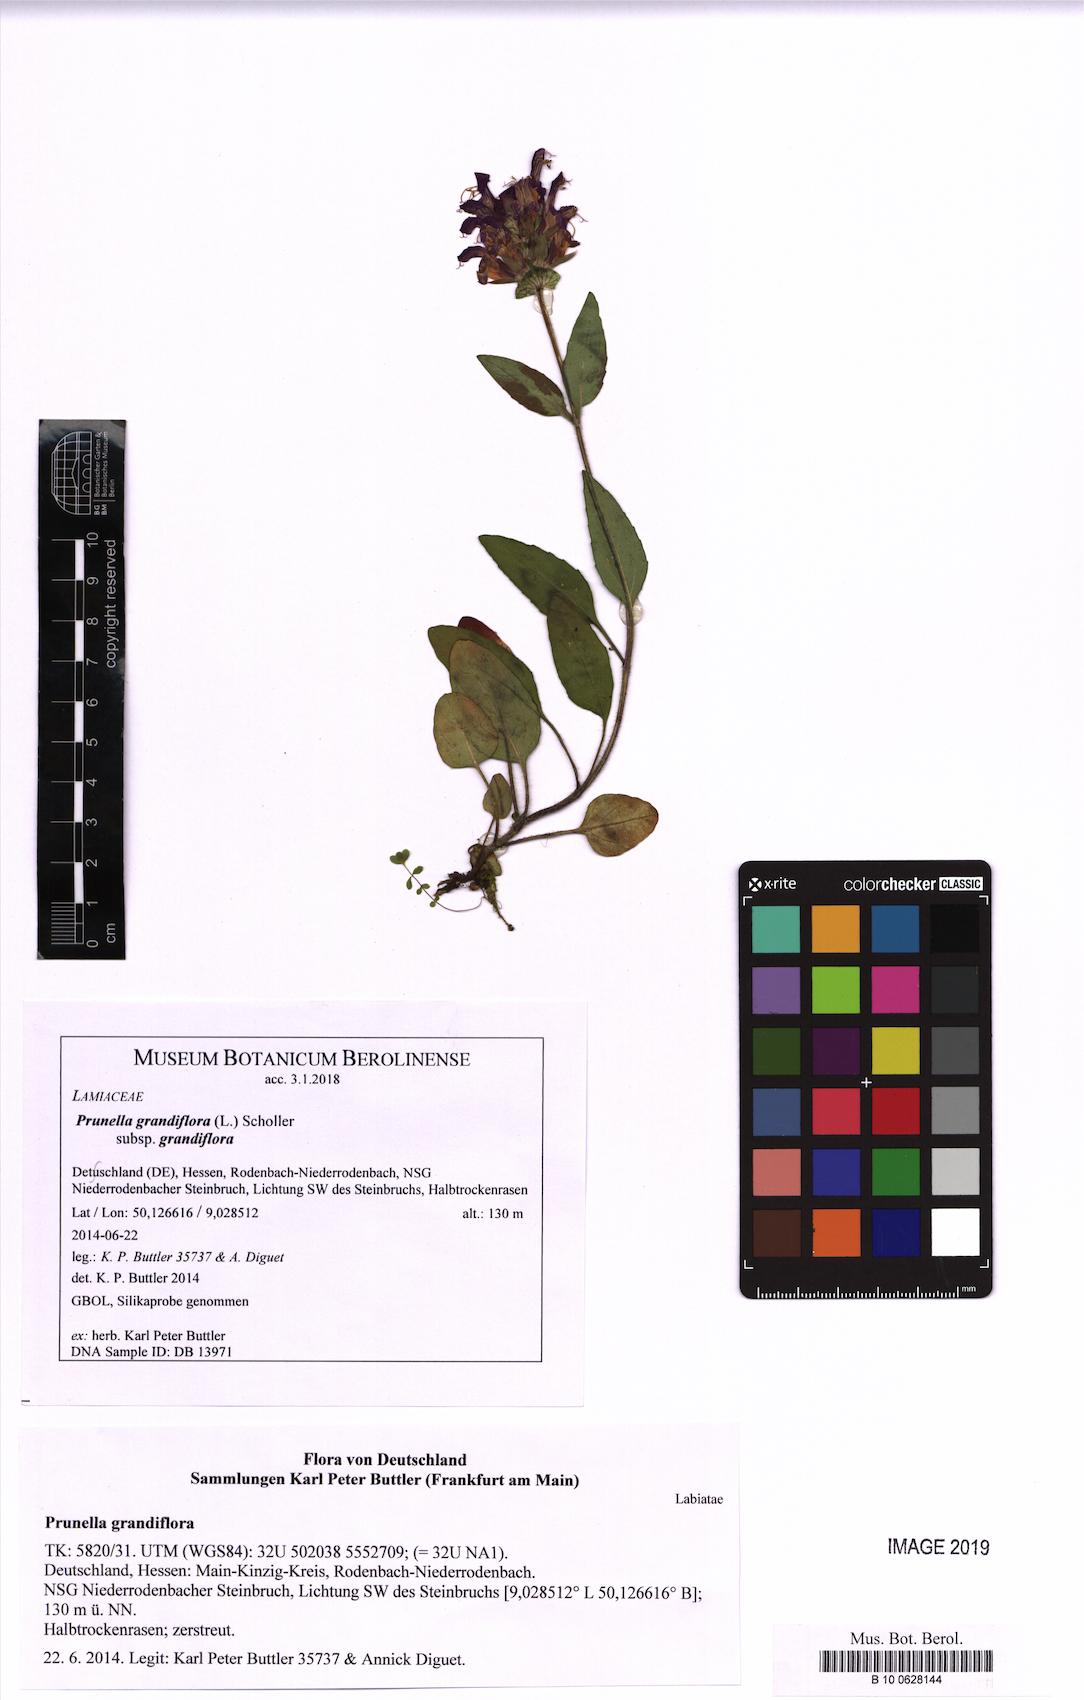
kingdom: Plantae
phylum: Tracheophyta
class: Magnoliopsida
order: Lamiales
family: Lamiaceae
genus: Prunella
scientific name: Prunella grandiflora
